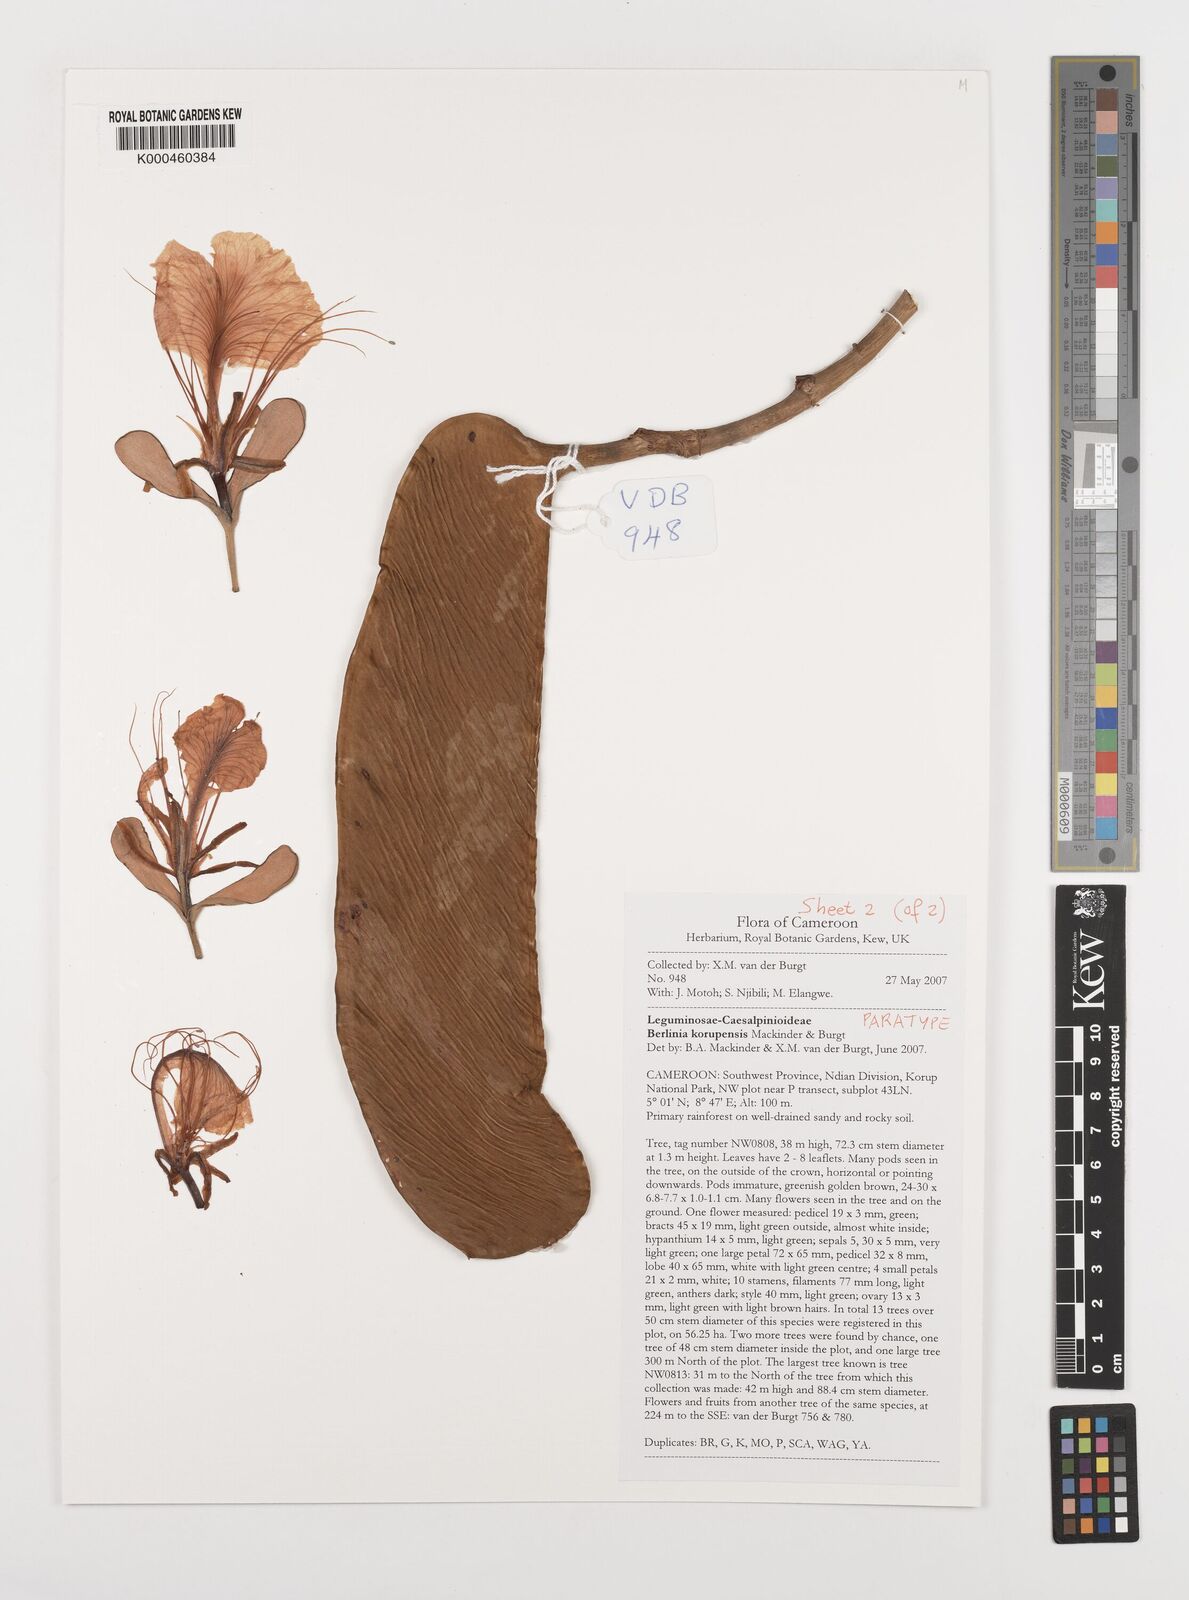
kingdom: Plantae
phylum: Tracheophyta
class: Magnoliopsida
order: Fabales
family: Fabaceae
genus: Berlinia
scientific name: Berlinia korupensis
